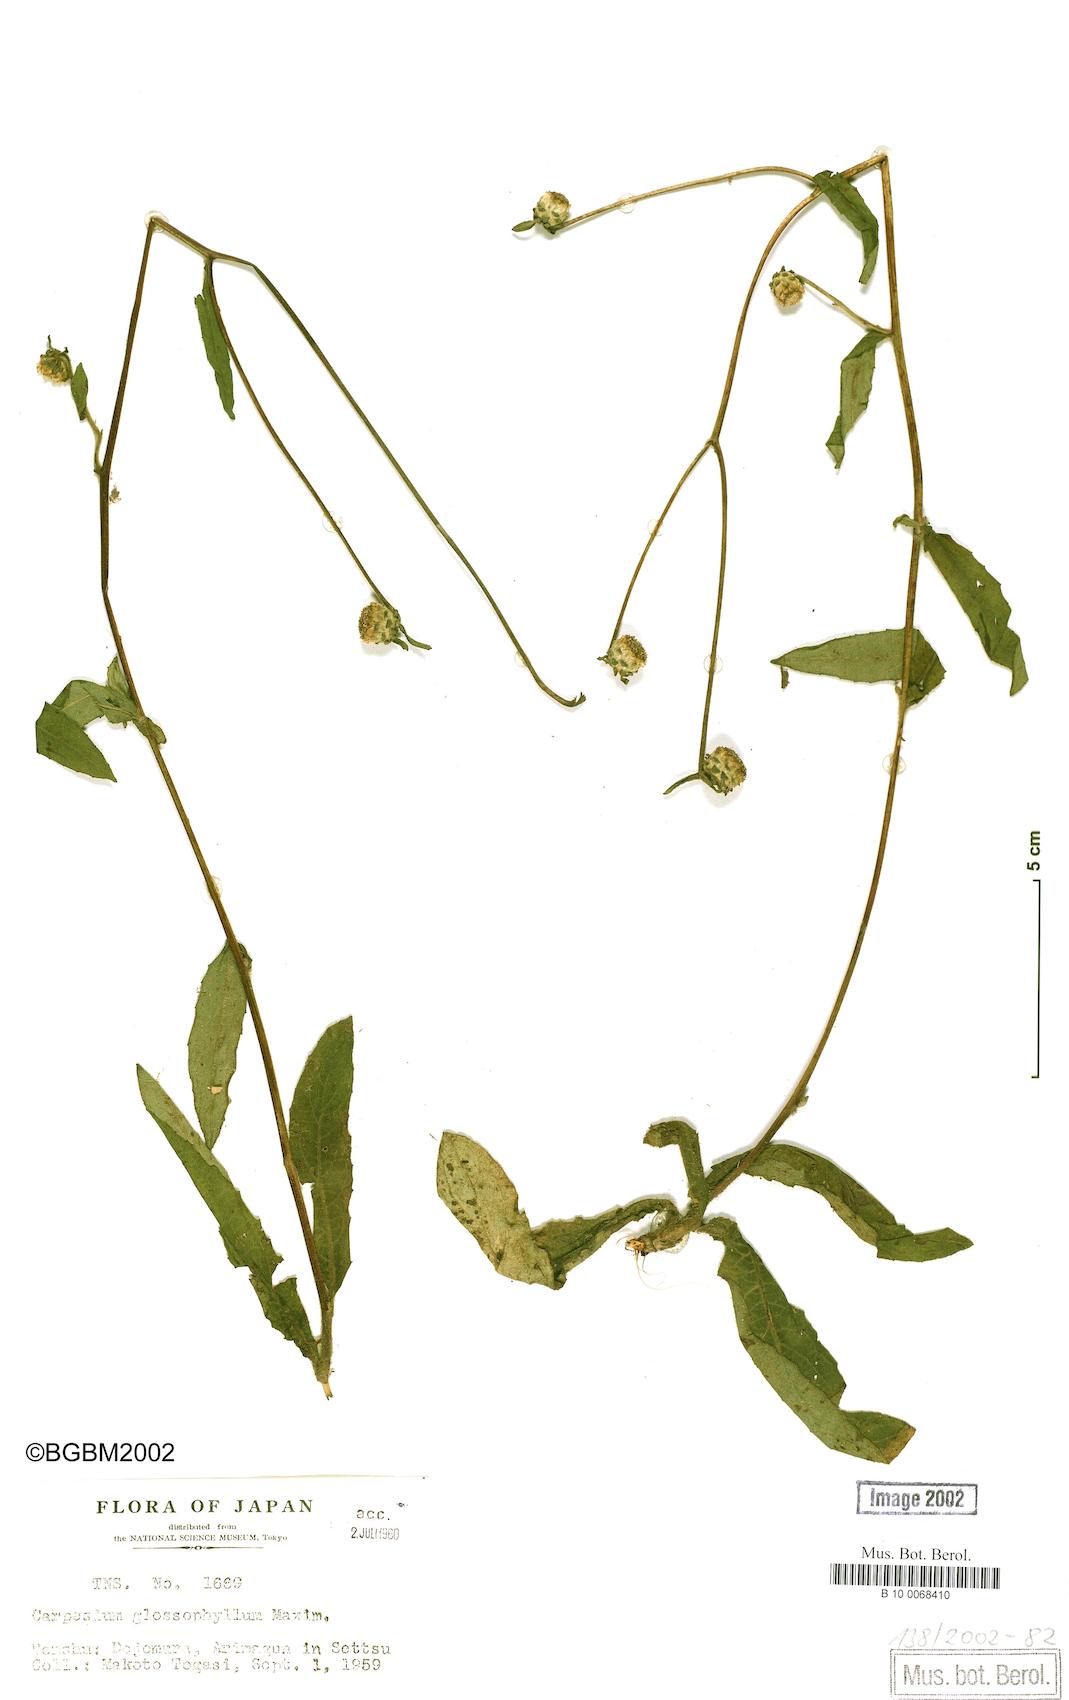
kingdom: Plantae
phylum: Tracheophyta
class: Magnoliopsida
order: Asterales
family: Asteraceae
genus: Carpesium
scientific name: Carpesium glossophyllum
